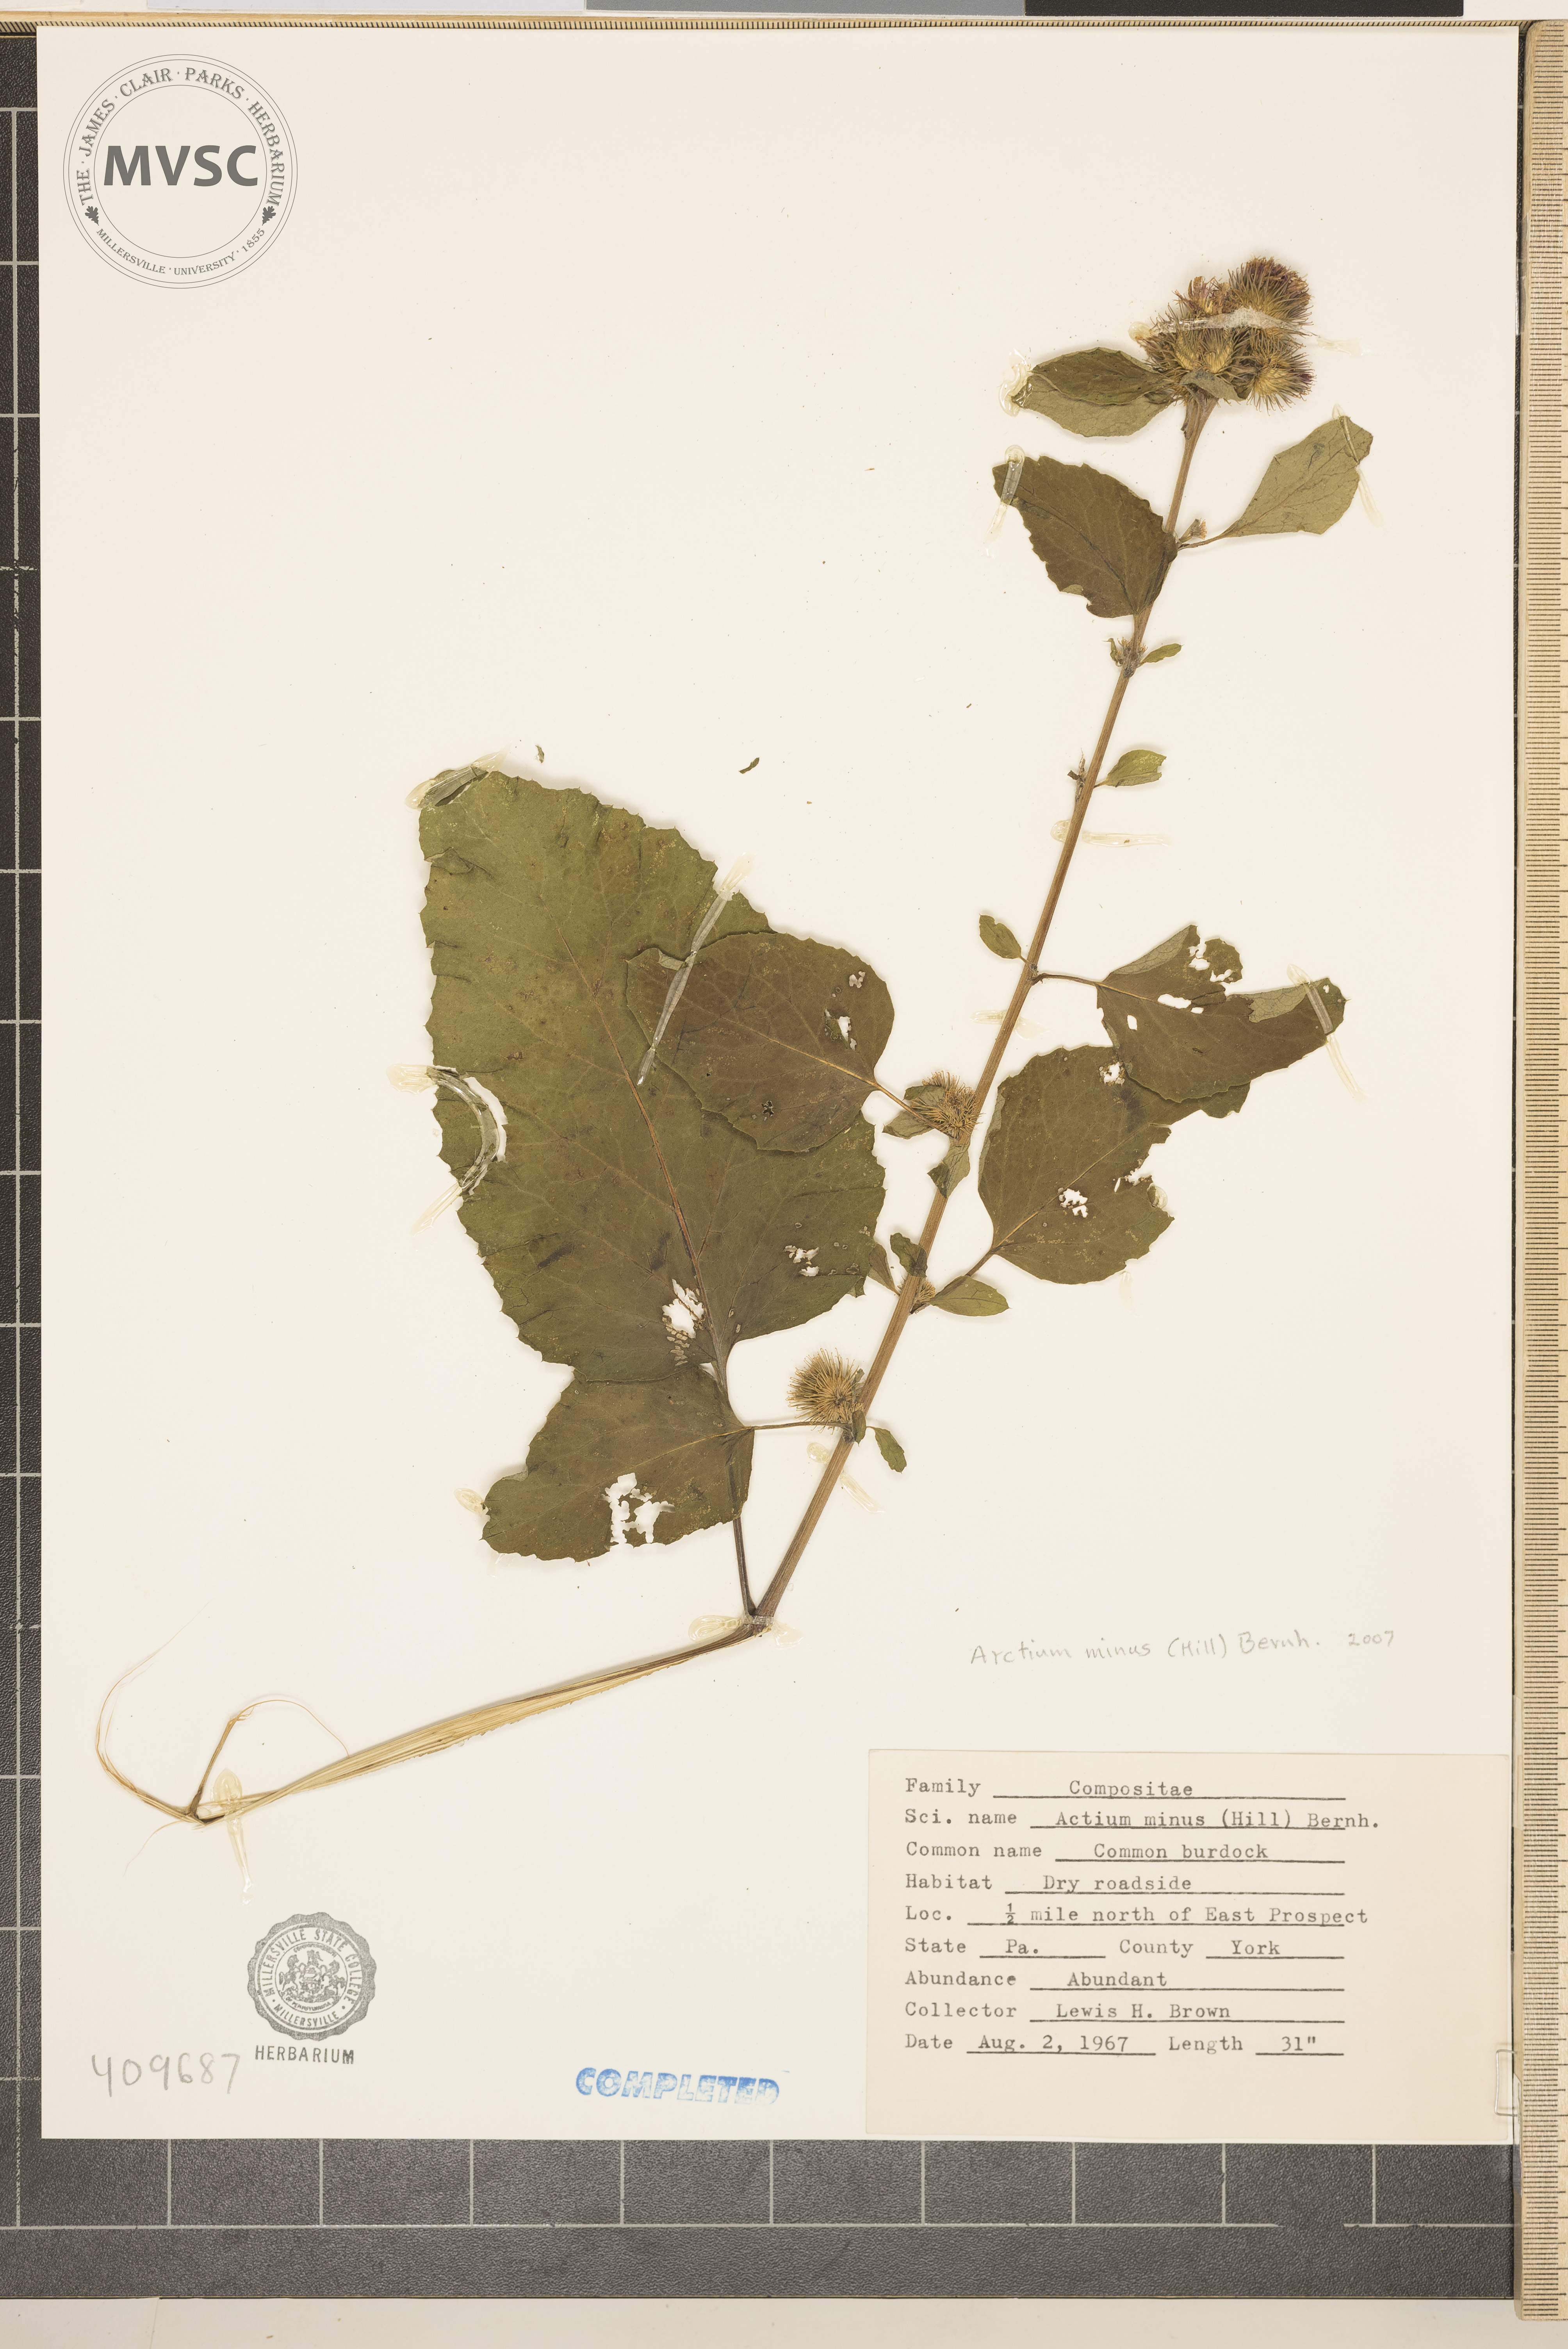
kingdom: Plantae
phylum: Tracheophyta
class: Magnoliopsida
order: Asterales
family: Asteraceae
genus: Arctium
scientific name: Arctium minus
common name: Lesser burdock
